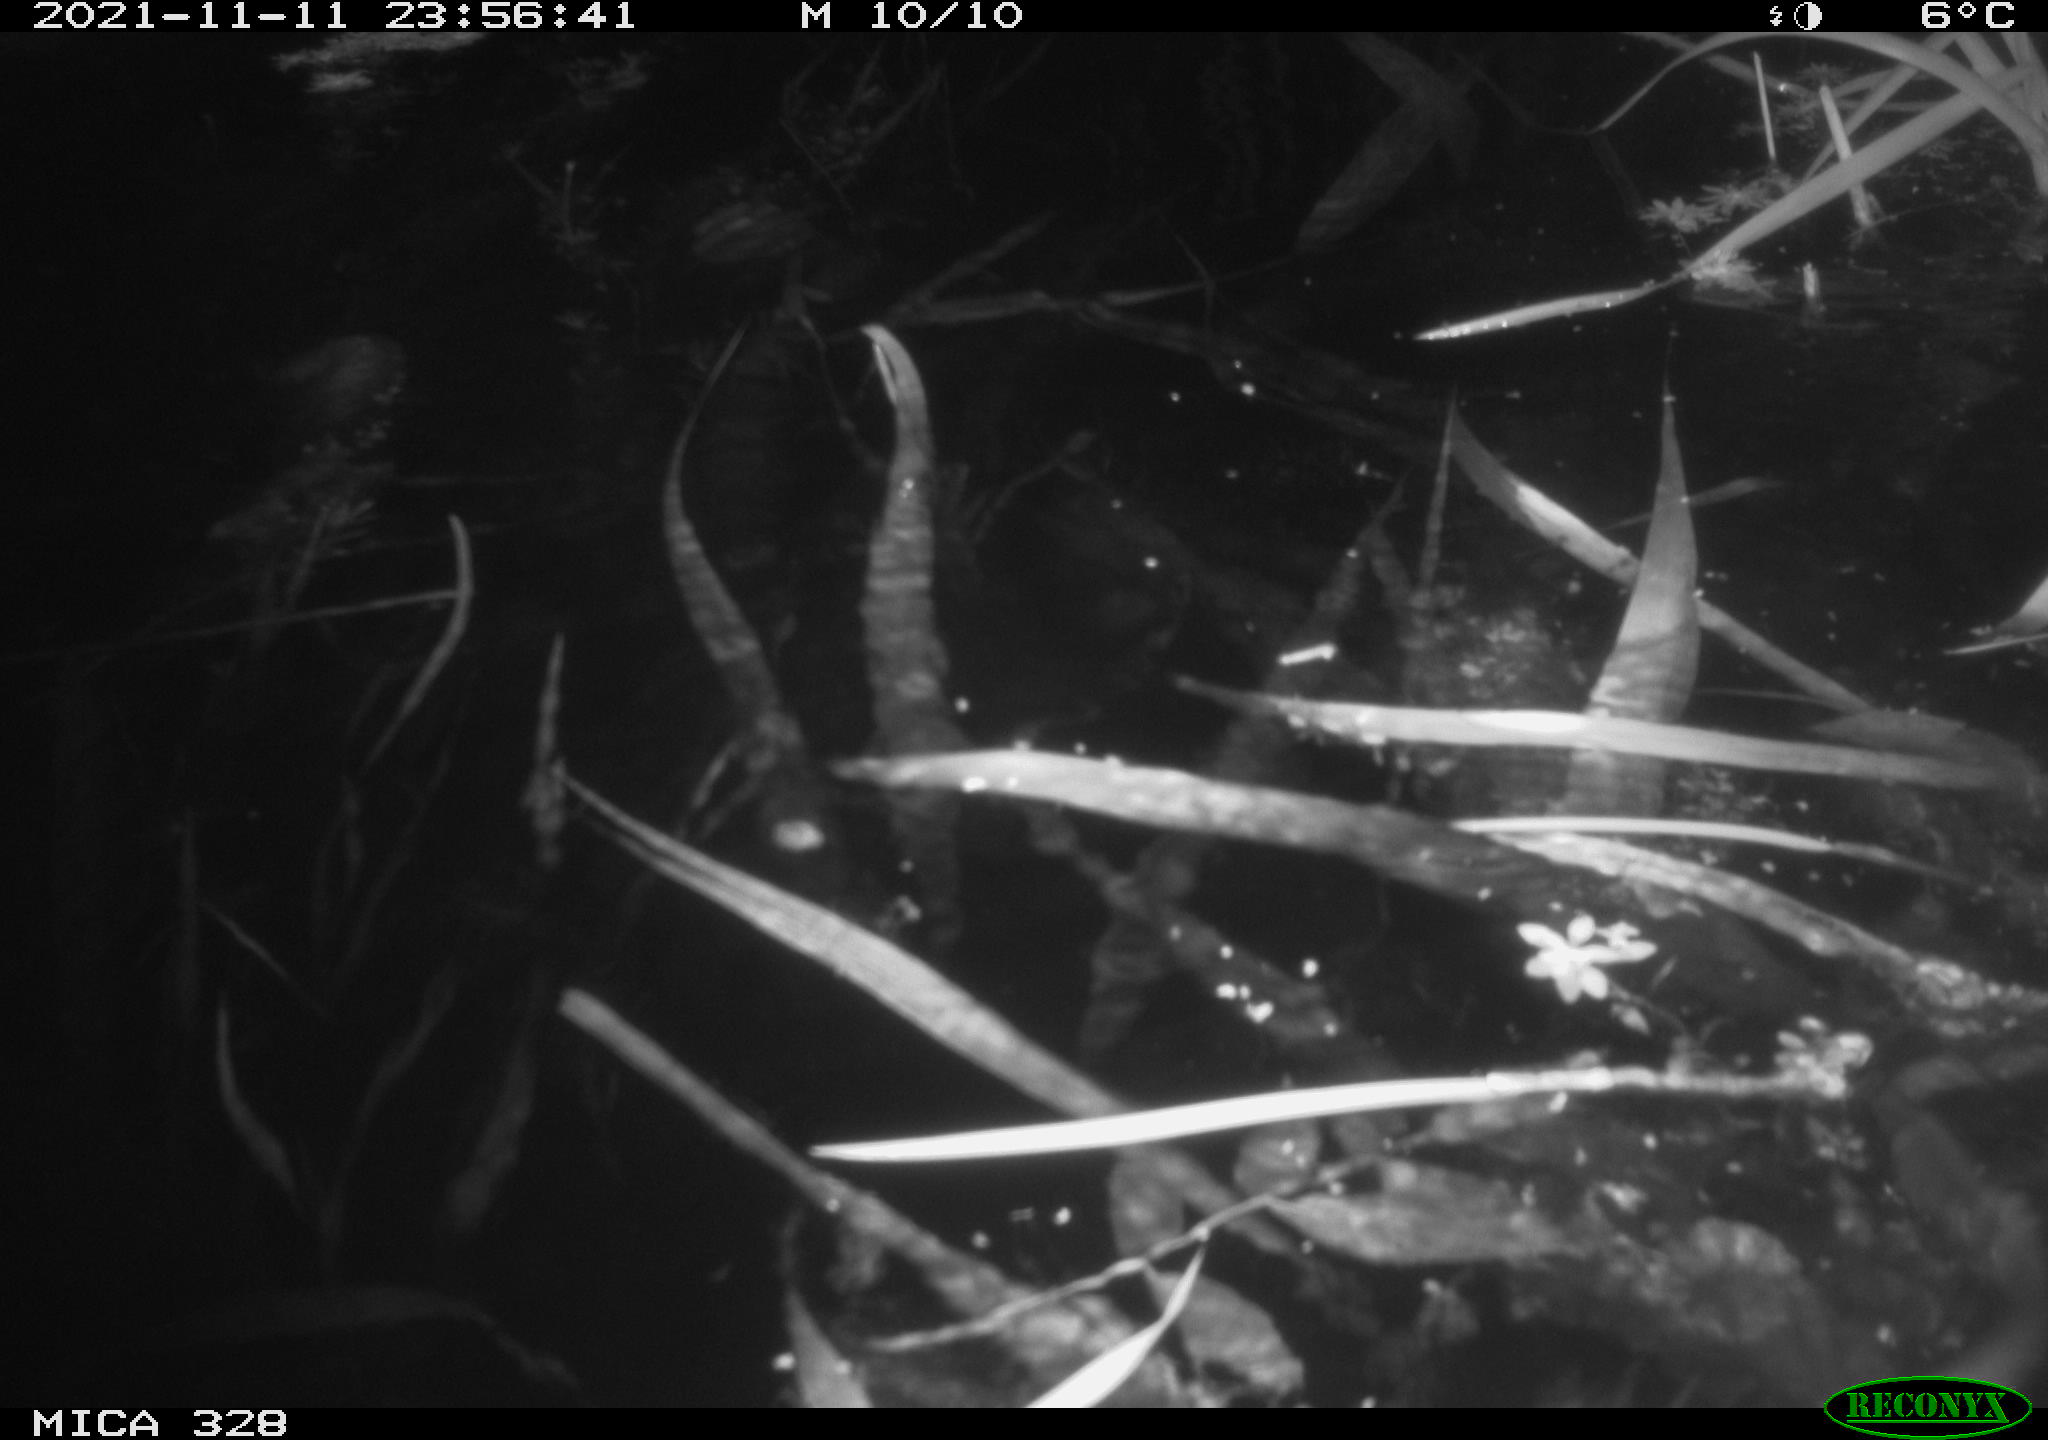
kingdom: Animalia
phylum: Chordata
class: Mammalia
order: Rodentia
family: Cricetidae
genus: Ondatra
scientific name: Ondatra zibethicus
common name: Muskrat
